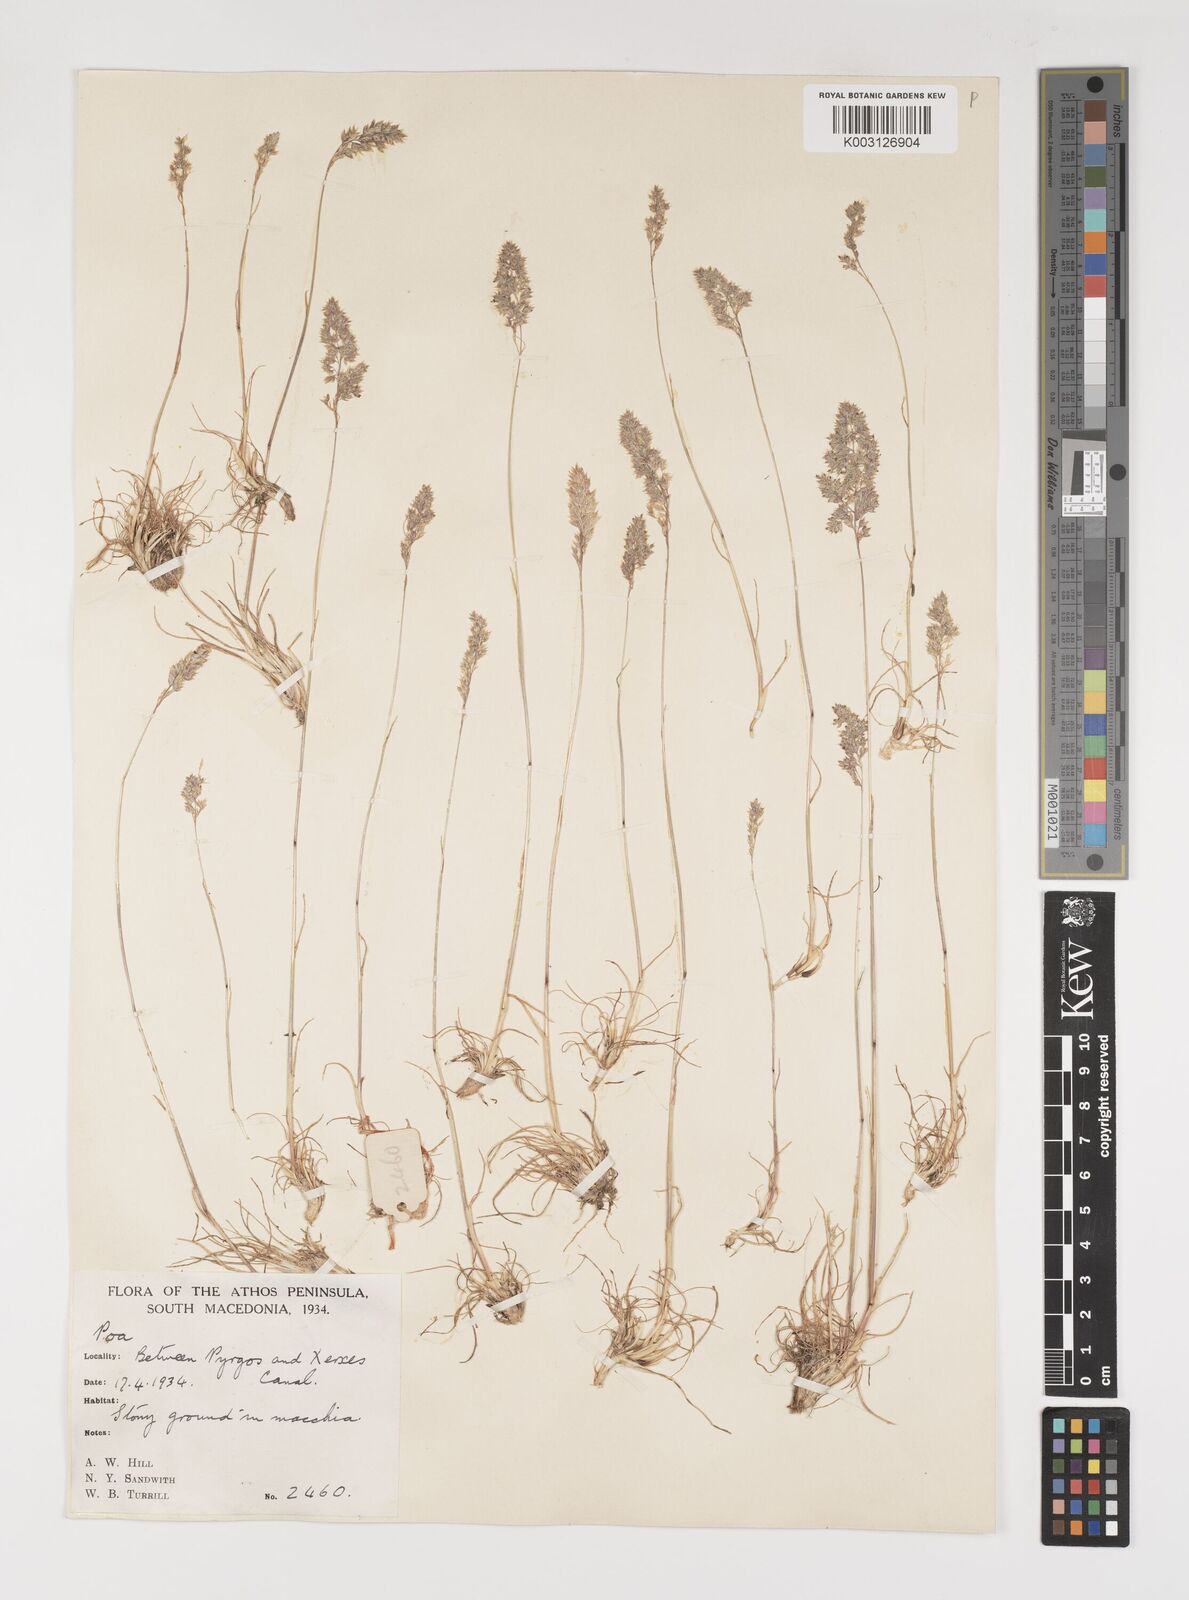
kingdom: Plantae
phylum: Tracheophyta
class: Liliopsida
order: Poales
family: Poaceae
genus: Poa
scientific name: Poa bulbosa
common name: Bulbous bluegrass
